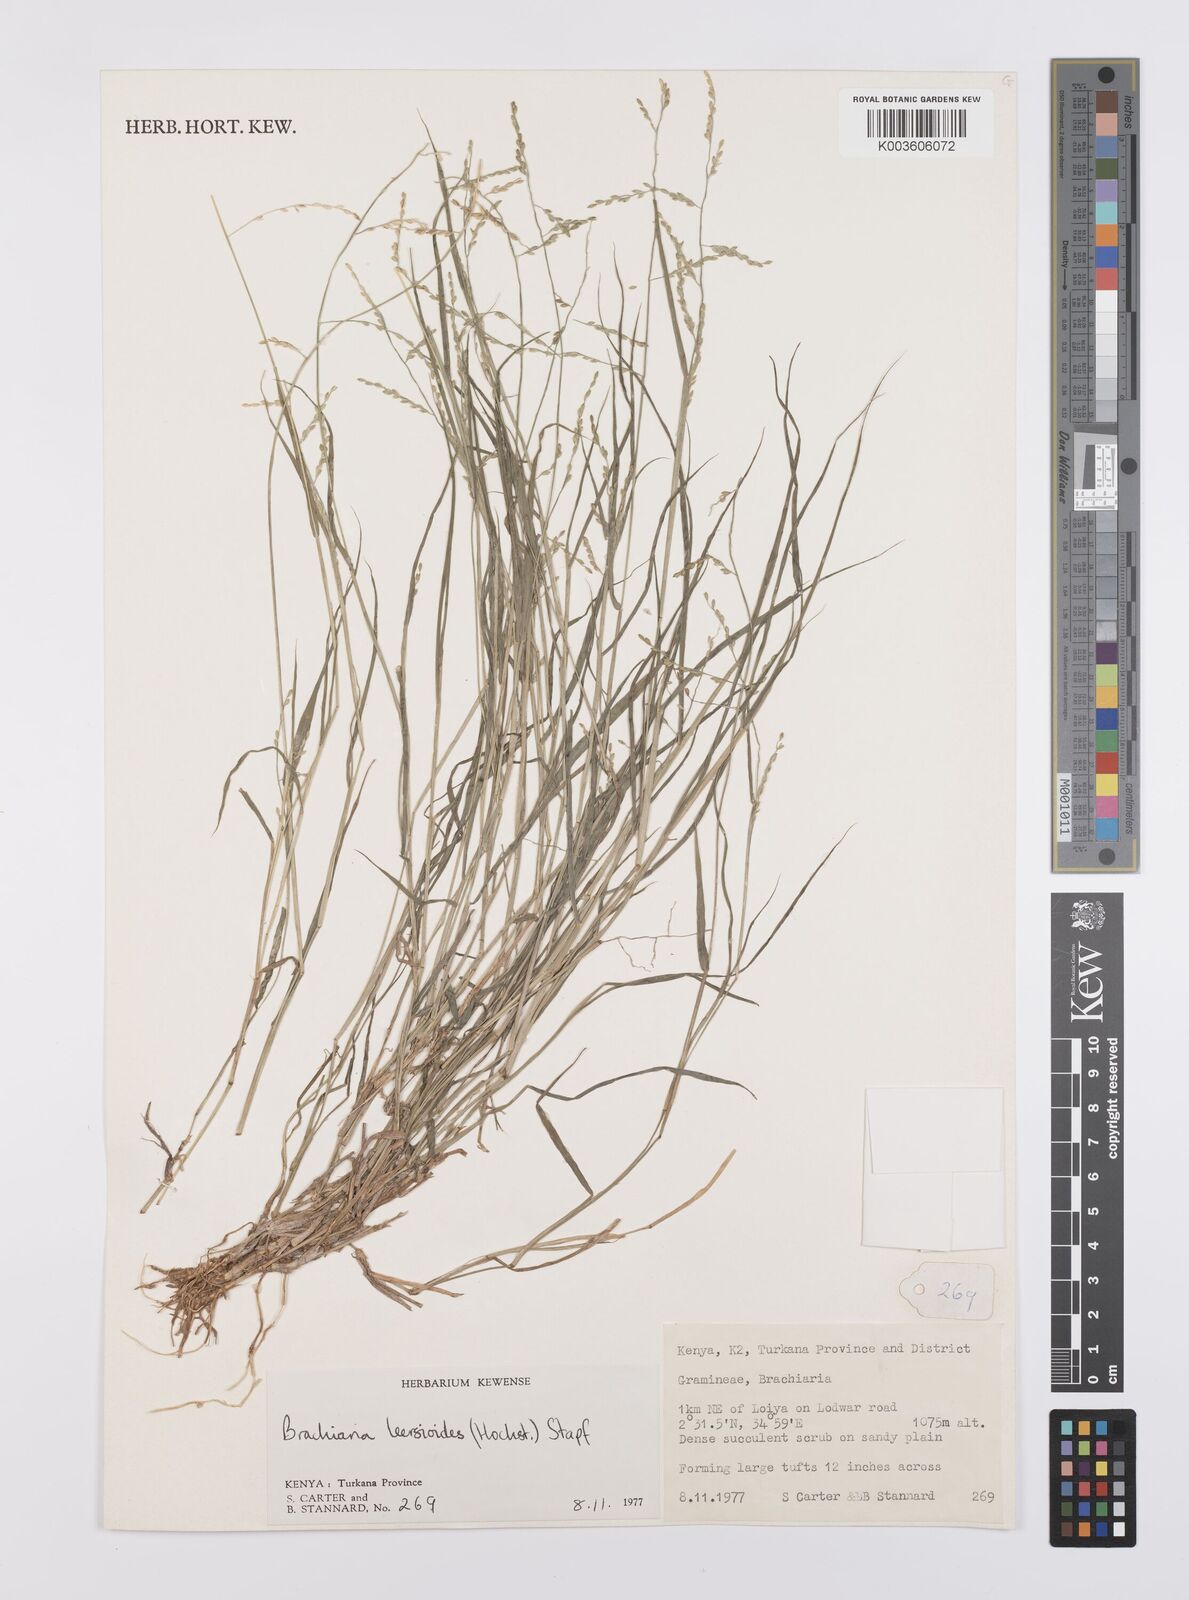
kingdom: Plantae
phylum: Tracheophyta
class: Liliopsida
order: Poales
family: Poaceae
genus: Urochloa
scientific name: Urochloa leersioides
